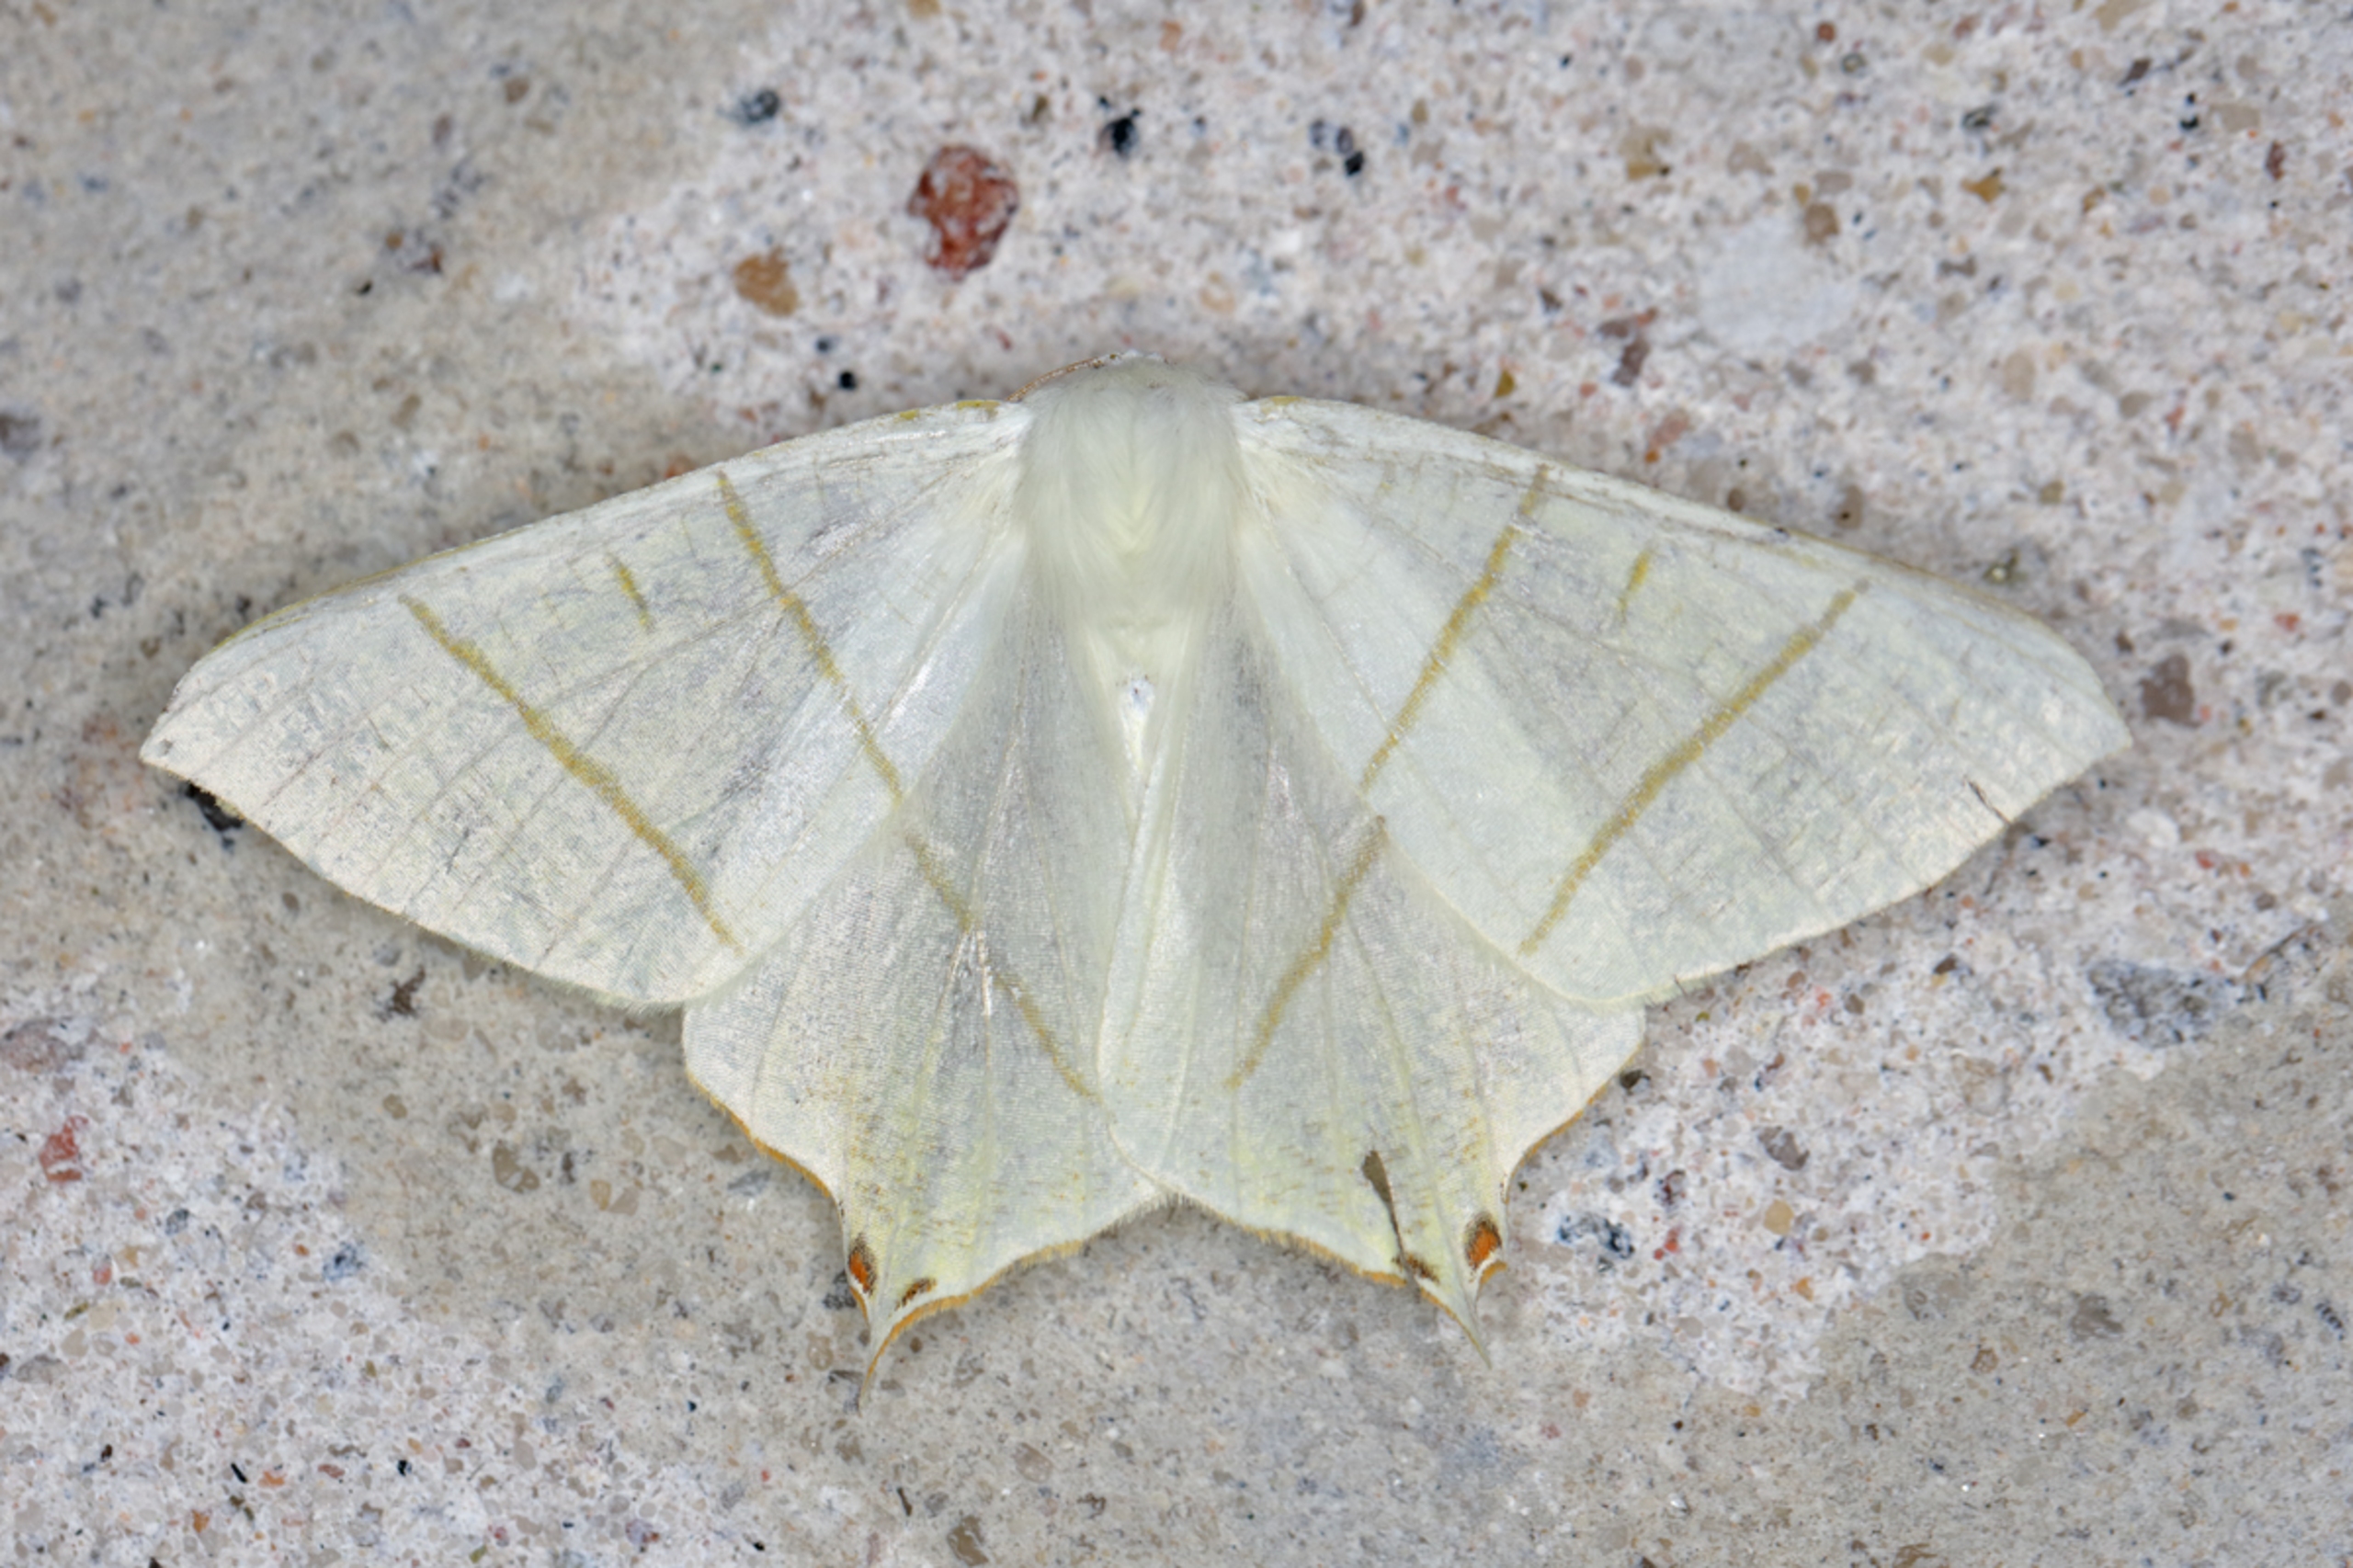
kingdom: Animalia
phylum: Arthropoda
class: Insecta
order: Lepidoptera
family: Geometridae
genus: Ourapteryx
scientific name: Ourapteryx sambucaria
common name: Natsvalehale
